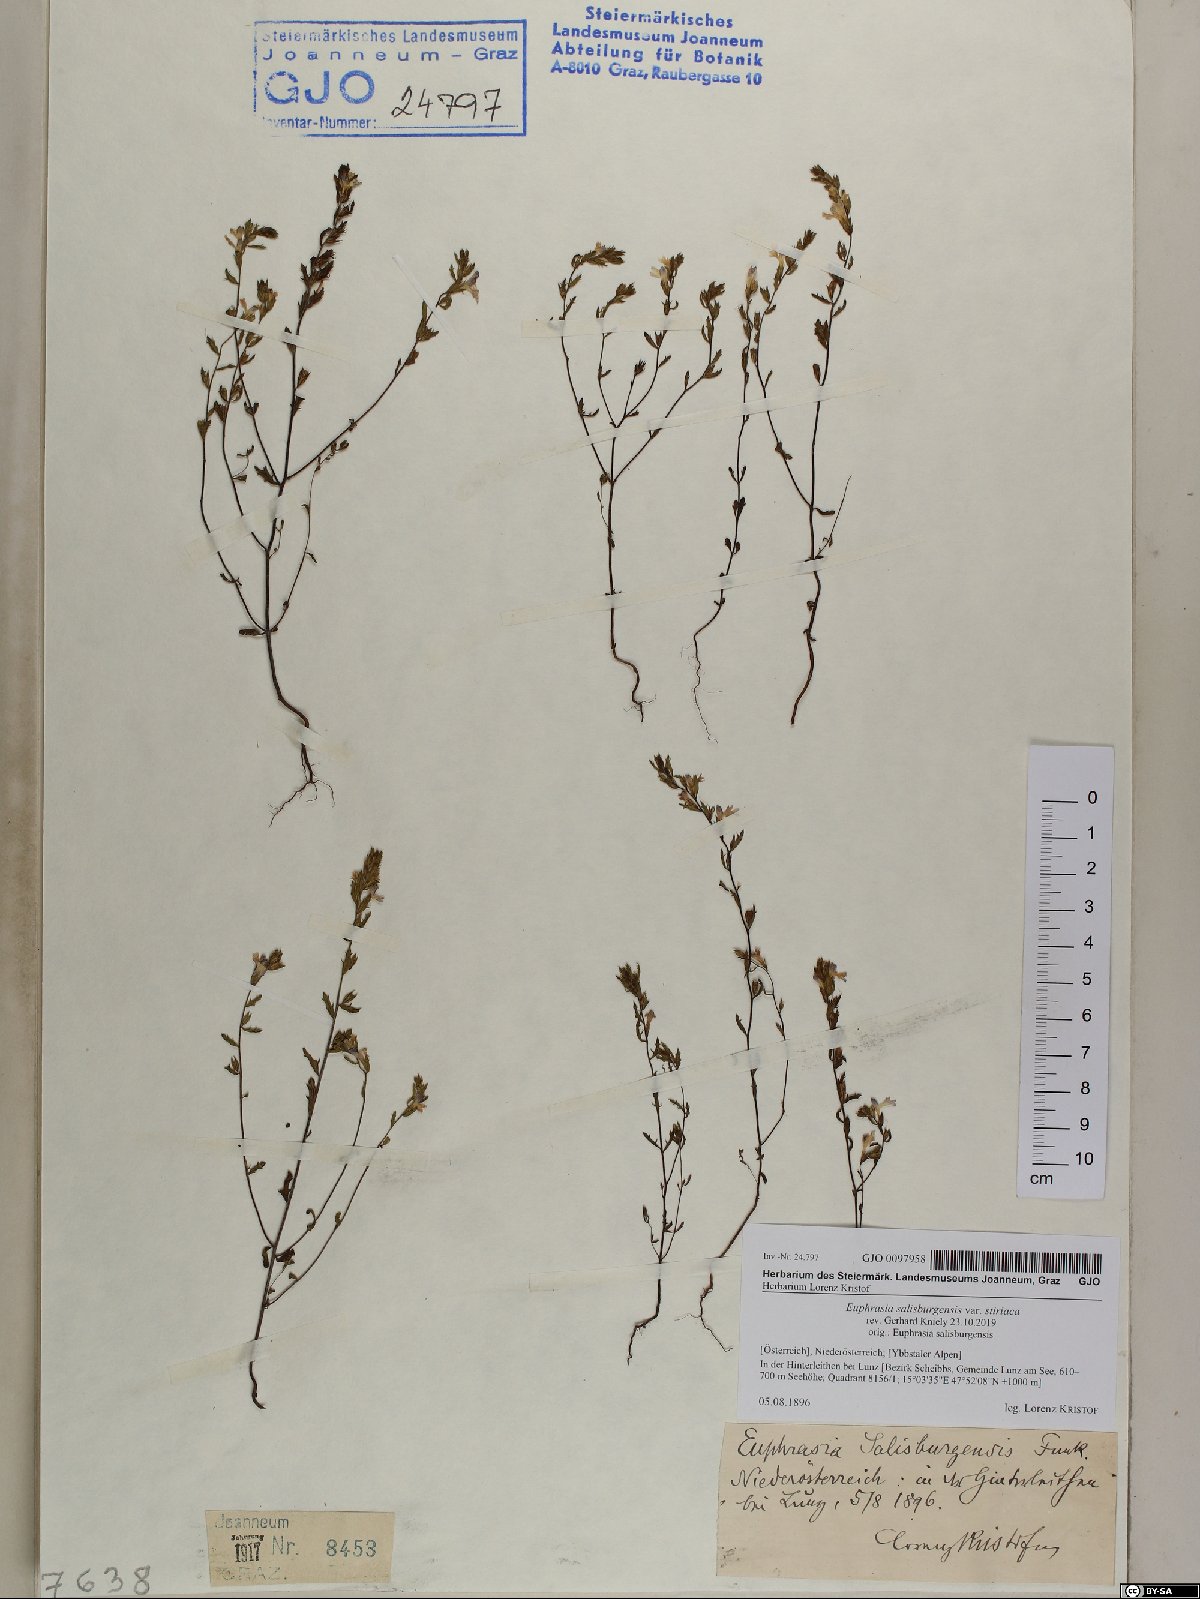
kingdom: Plantae
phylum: Tracheophyta
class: Magnoliopsida
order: Lamiales
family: Orobanchaceae
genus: Euphrasia
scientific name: Euphrasia salisburgensis
